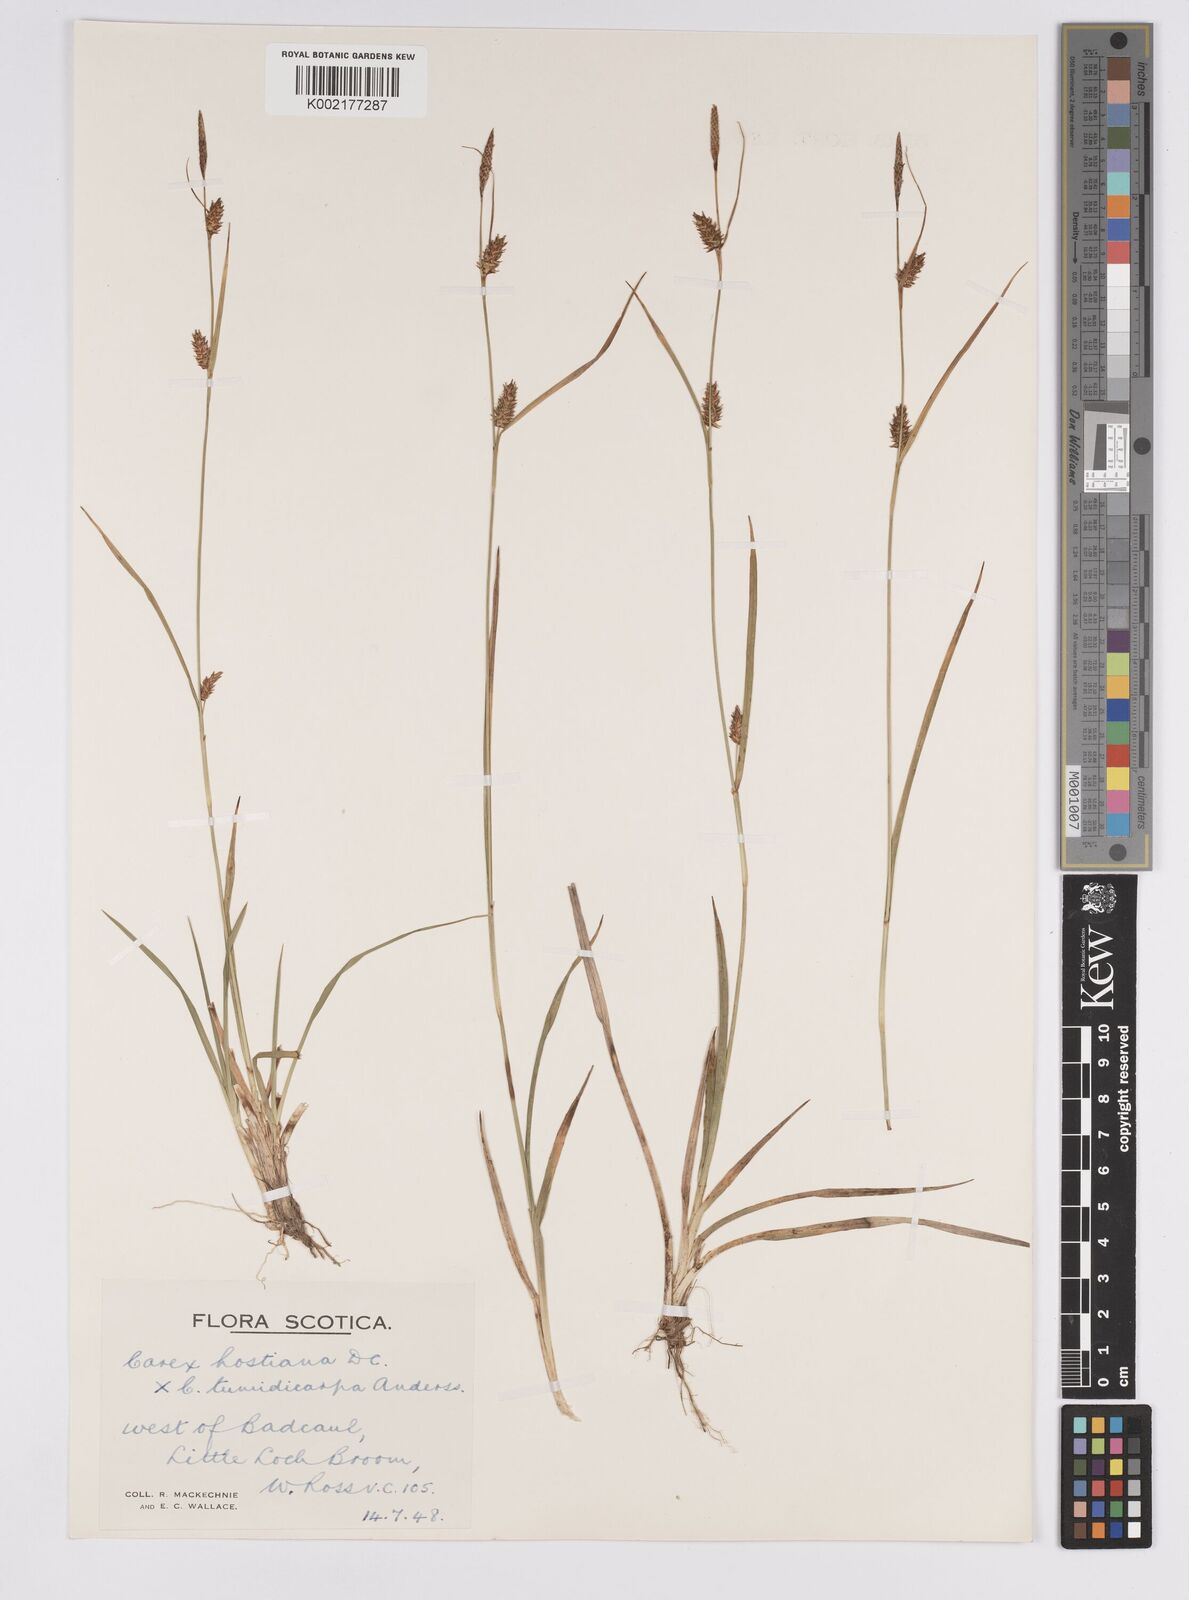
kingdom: Plantae
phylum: Tracheophyta
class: Liliopsida
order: Poales
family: Cyperaceae
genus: Carex
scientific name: Carex hostiana
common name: Tawny sedge
